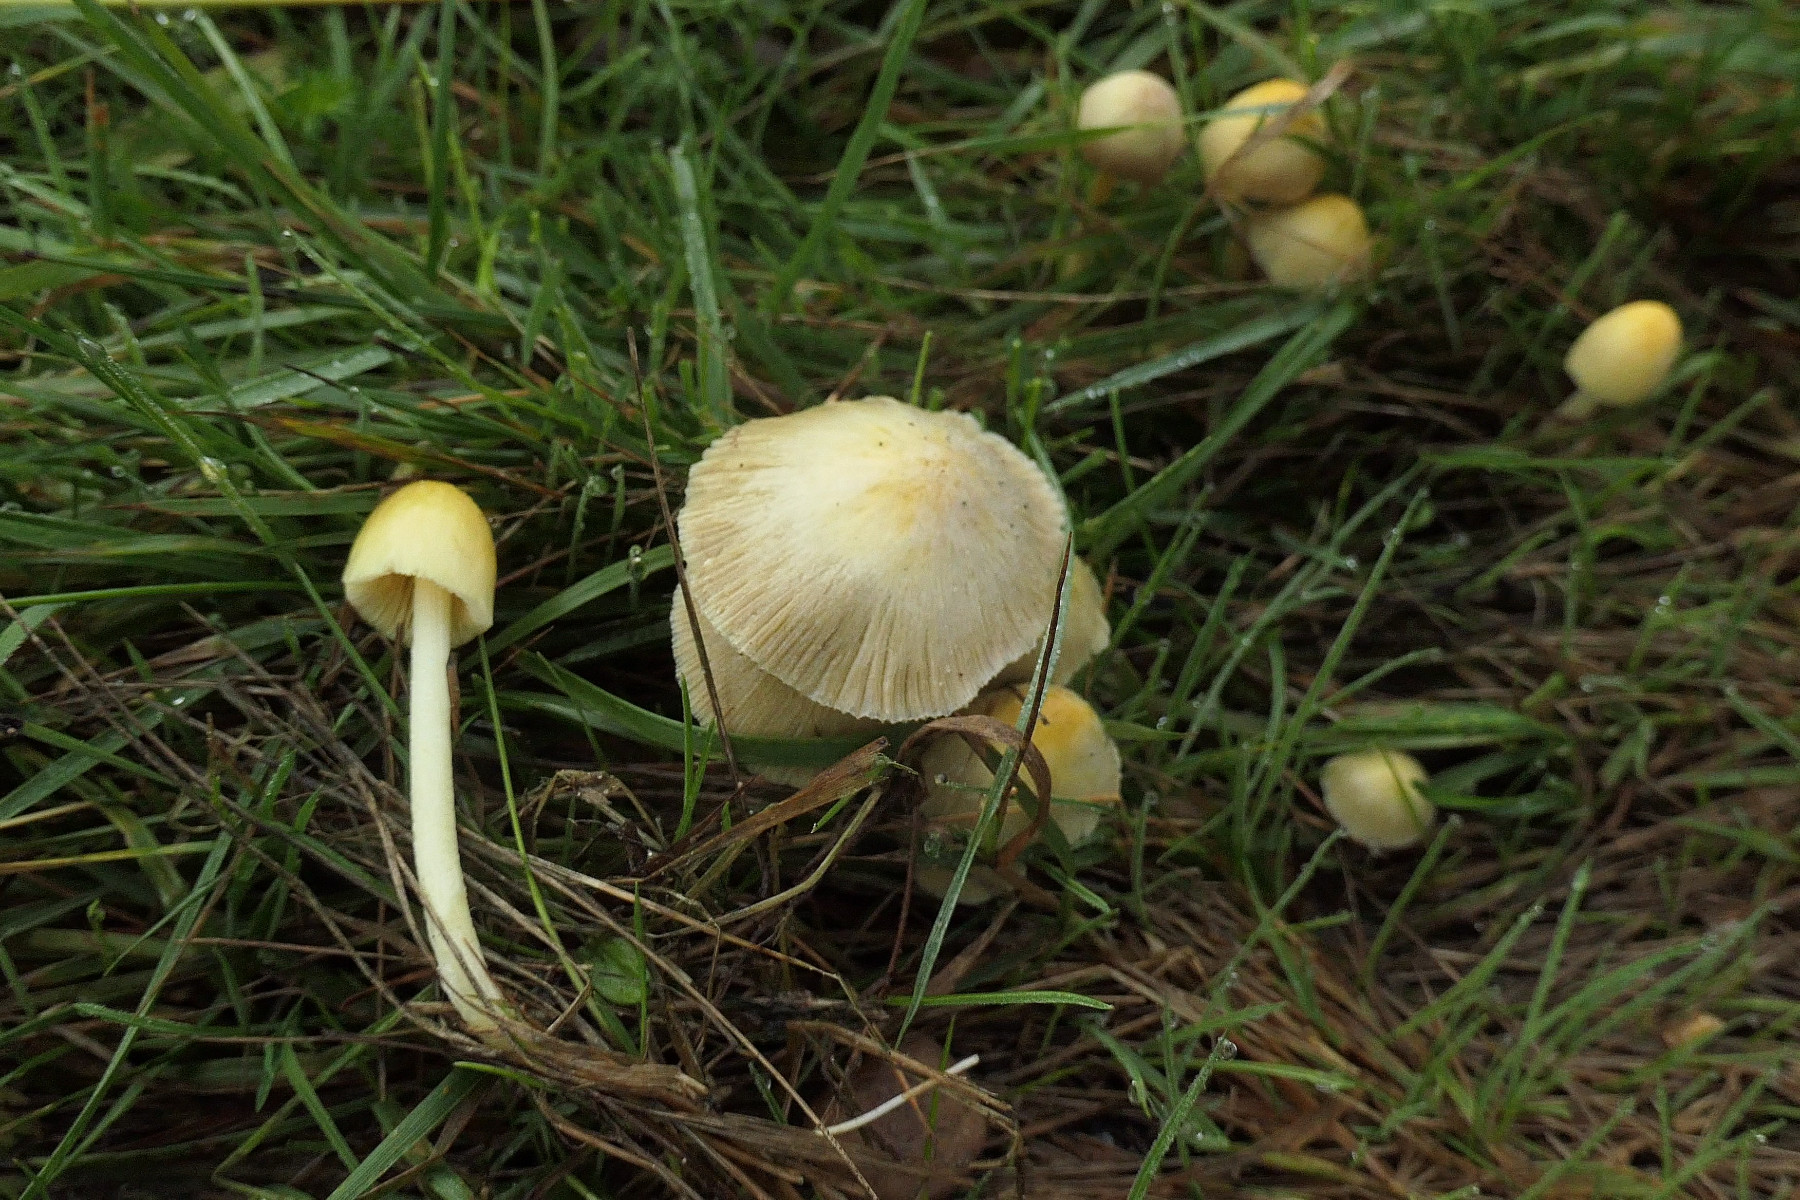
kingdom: Fungi
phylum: Basidiomycota
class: Agaricomycetes
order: Agaricales
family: Bolbitiaceae
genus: Bolbitius
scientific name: Bolbitius titubans
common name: almindelig gulhat
